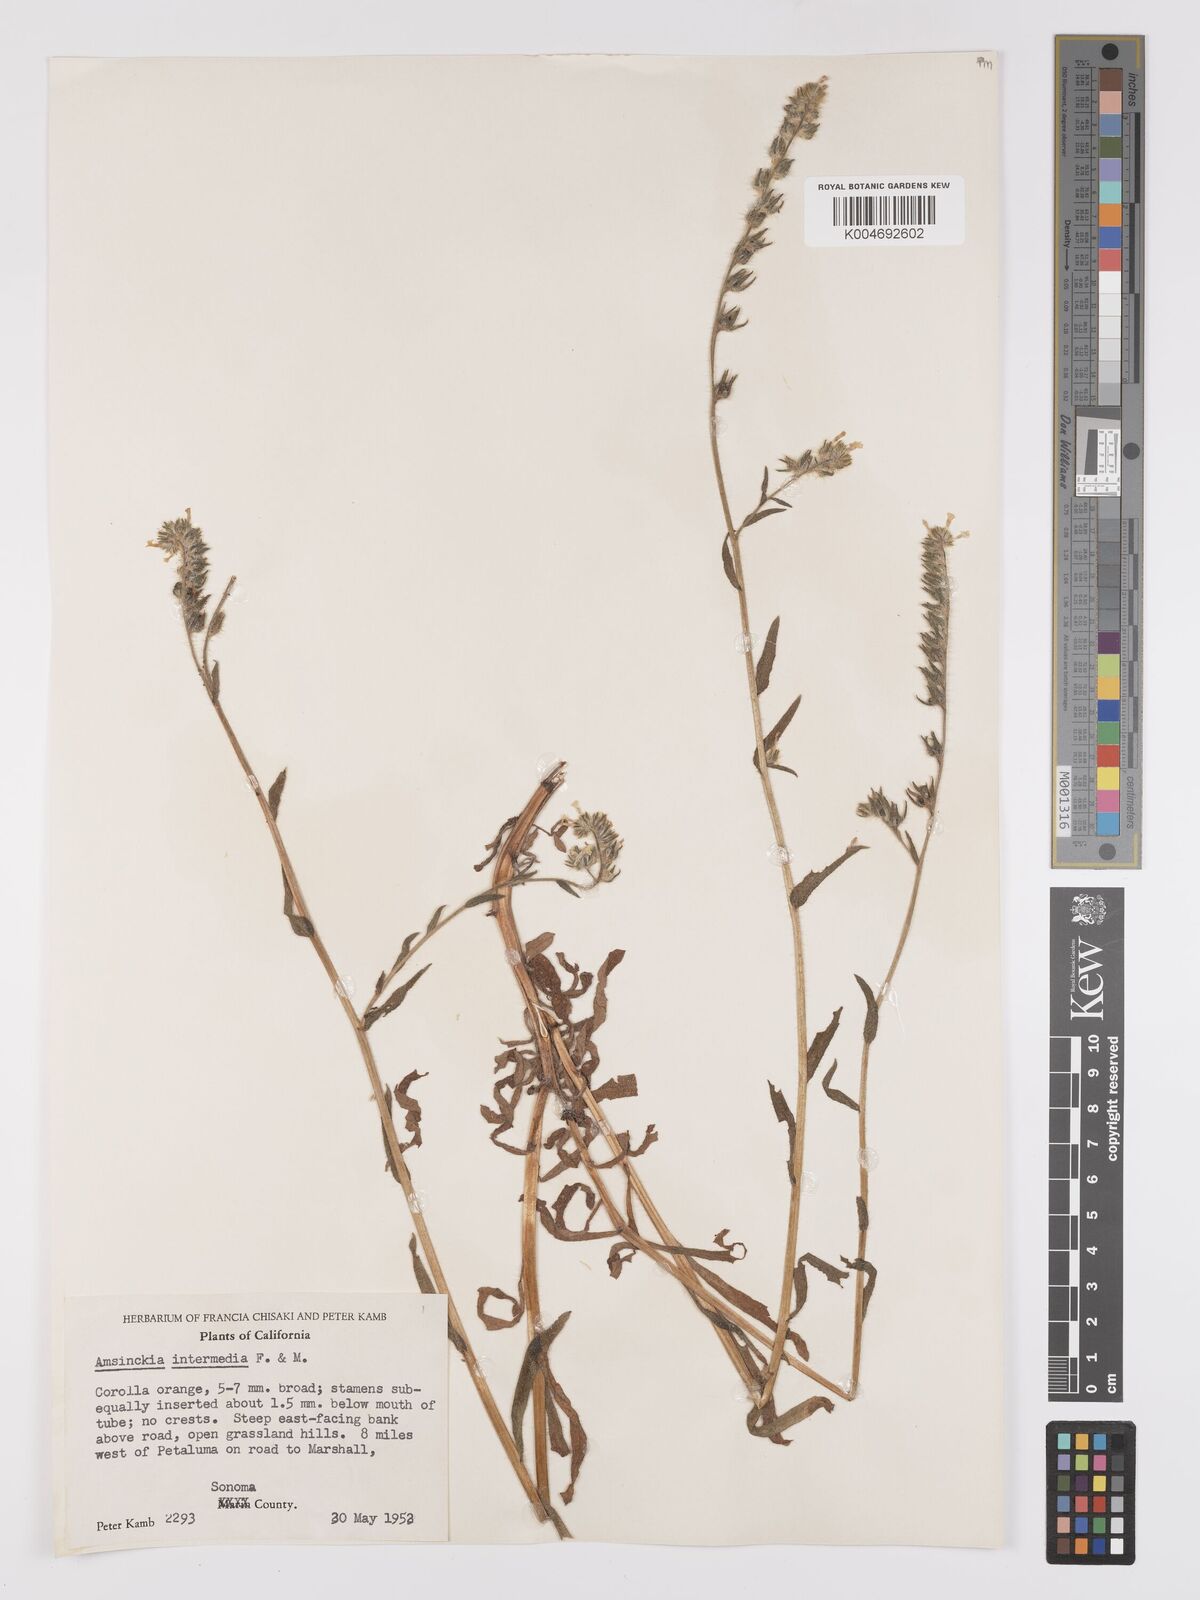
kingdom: Plantae
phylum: Tracheophyta
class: Magnoliopsida
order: Boraginales
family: Boraginaceae
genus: Amsinckia
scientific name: Amsinckia menziesii
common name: Menzies' fiddleneck
